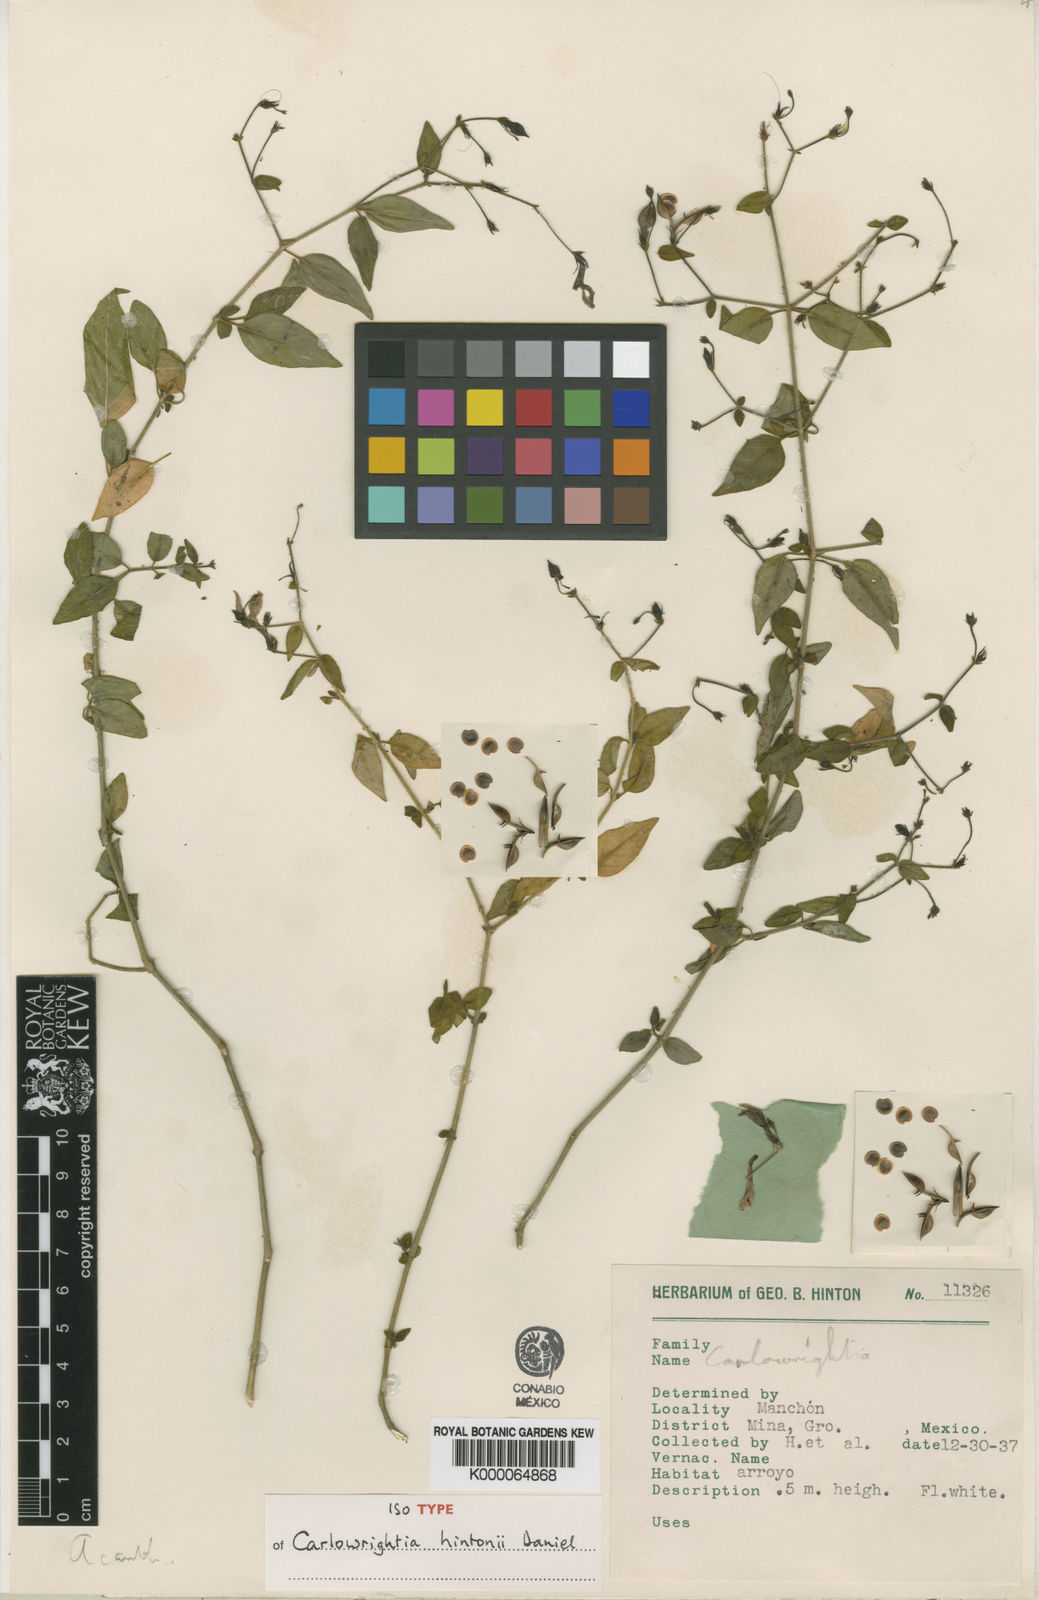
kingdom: Plantae
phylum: Tracheophyta
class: Magnoliopsida
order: Lamiales
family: Acanthaceae
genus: Carlowrightia
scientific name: Carlowrightia hintonii
